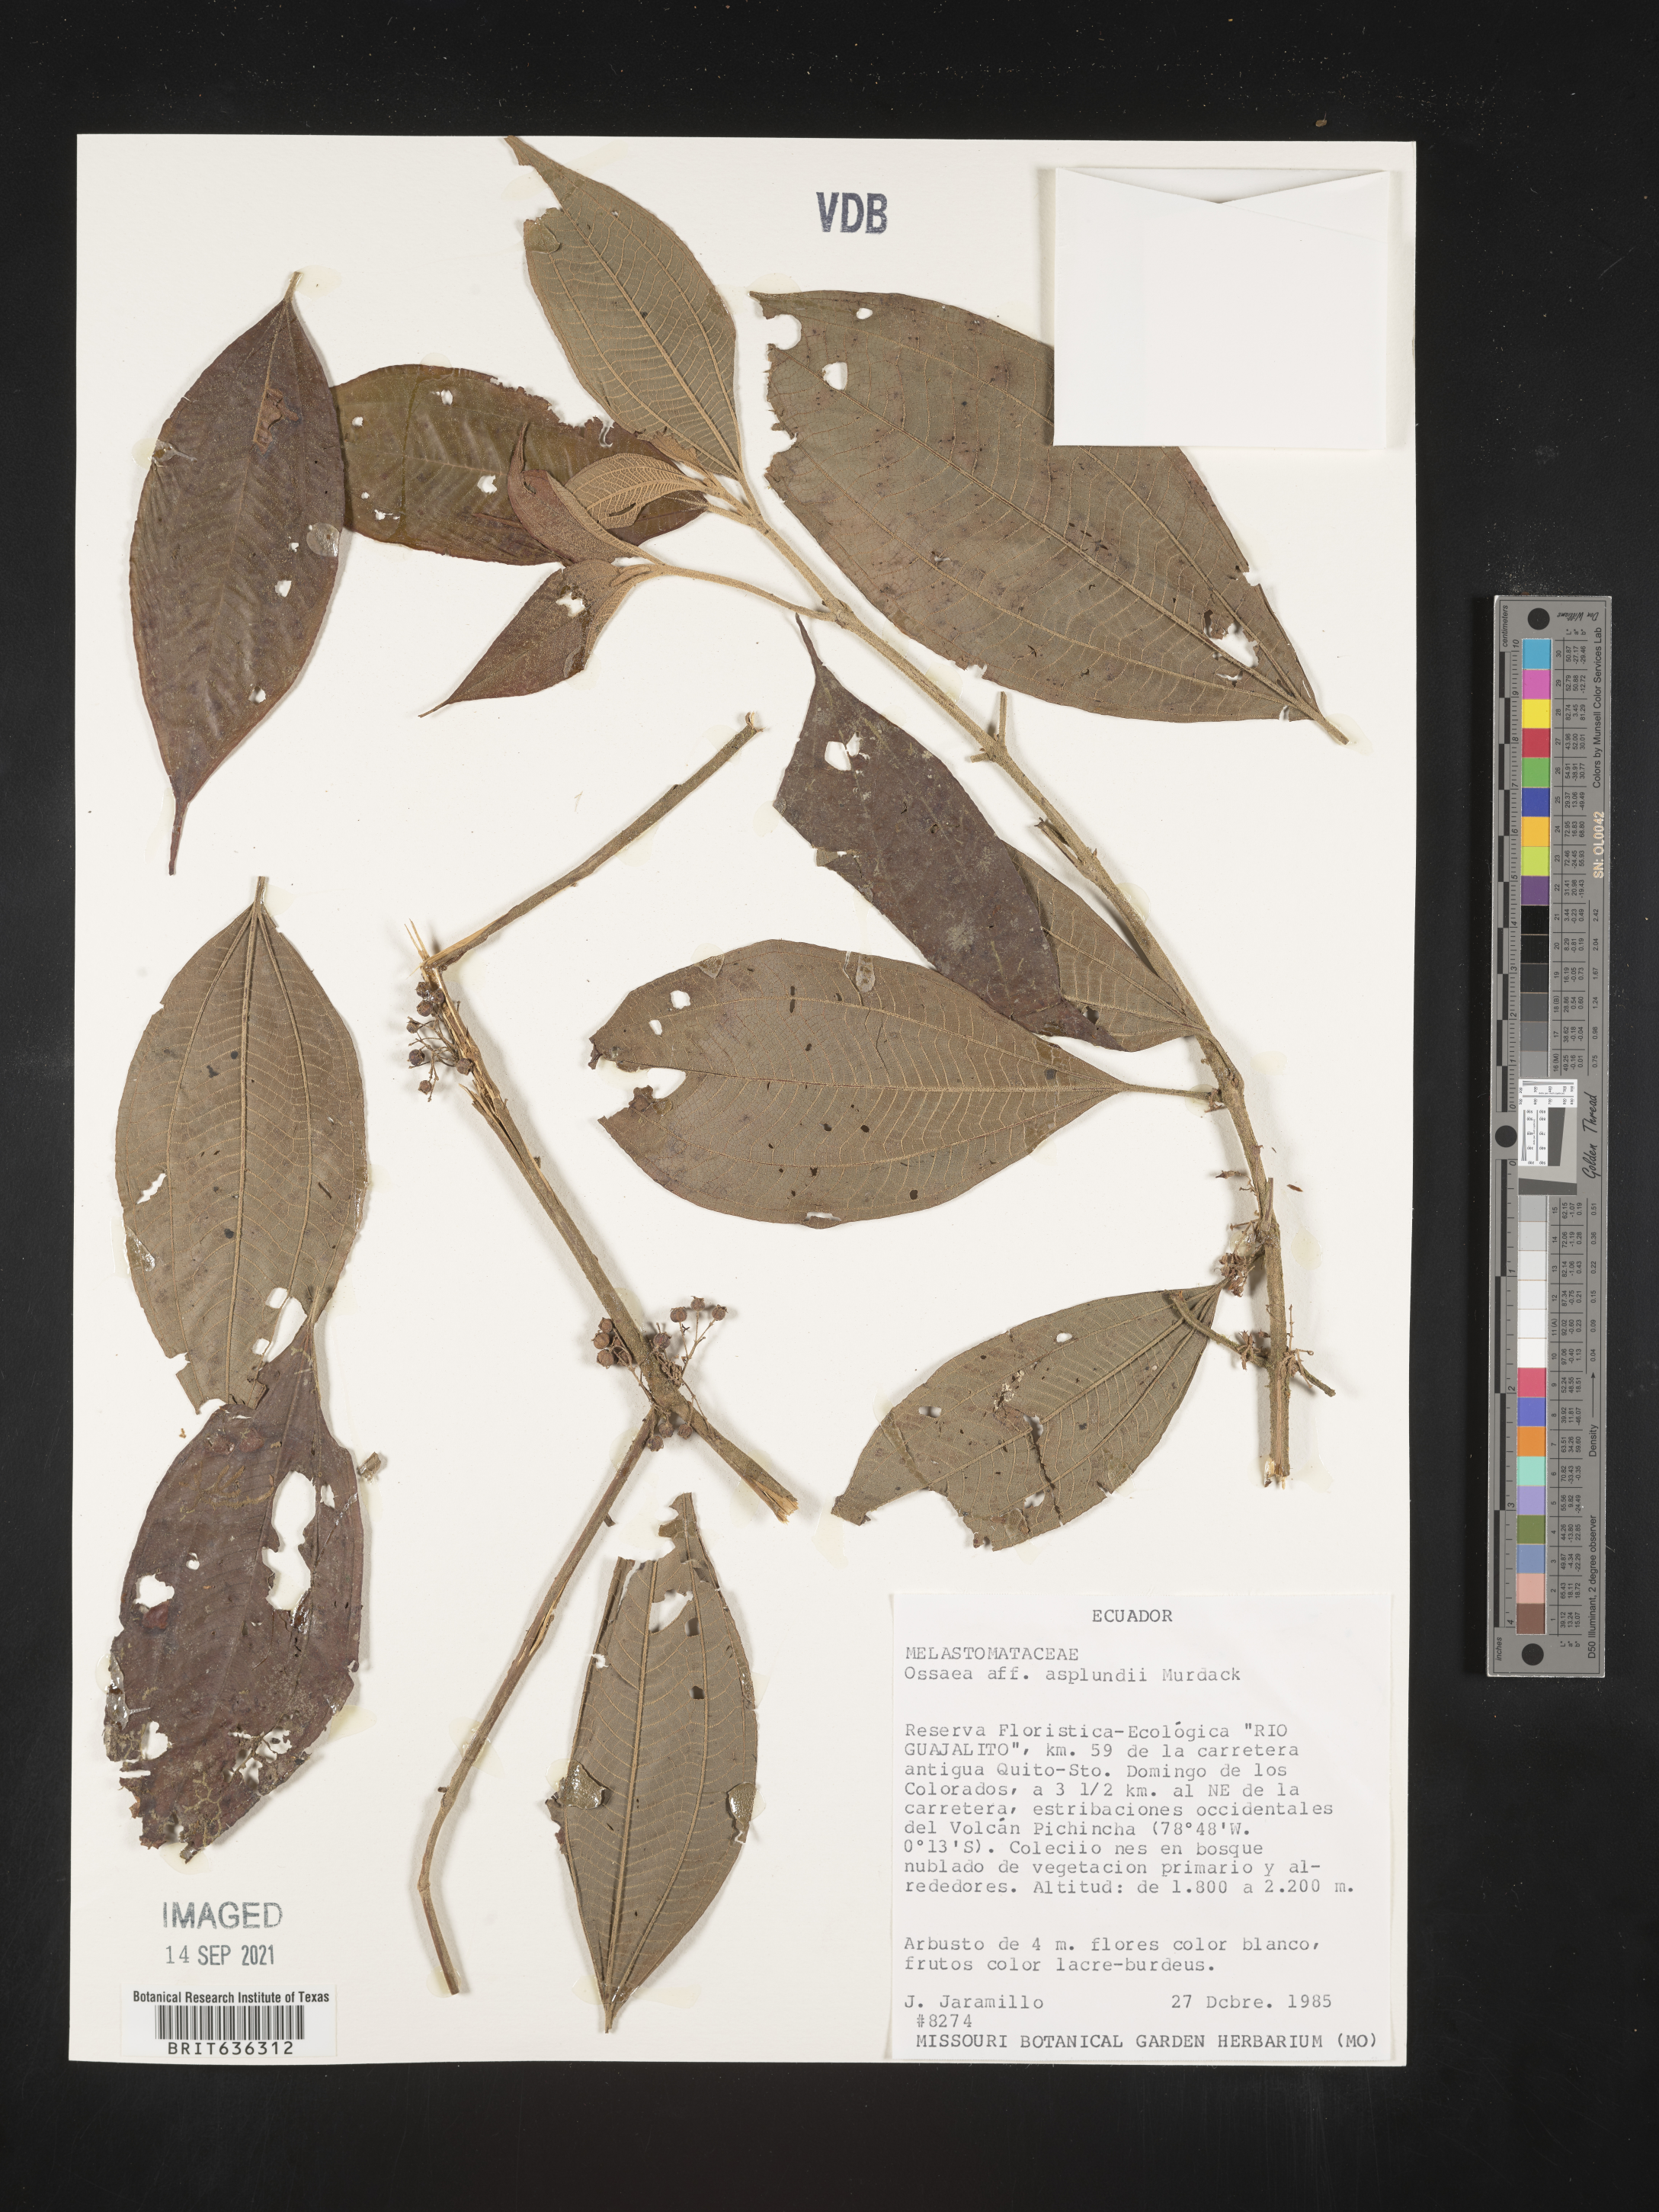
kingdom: Plantae
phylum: Tracheophyta
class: Magnoliopsida
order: Myrtales
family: Melastomataceae
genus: Ossaea
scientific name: Ossaea
